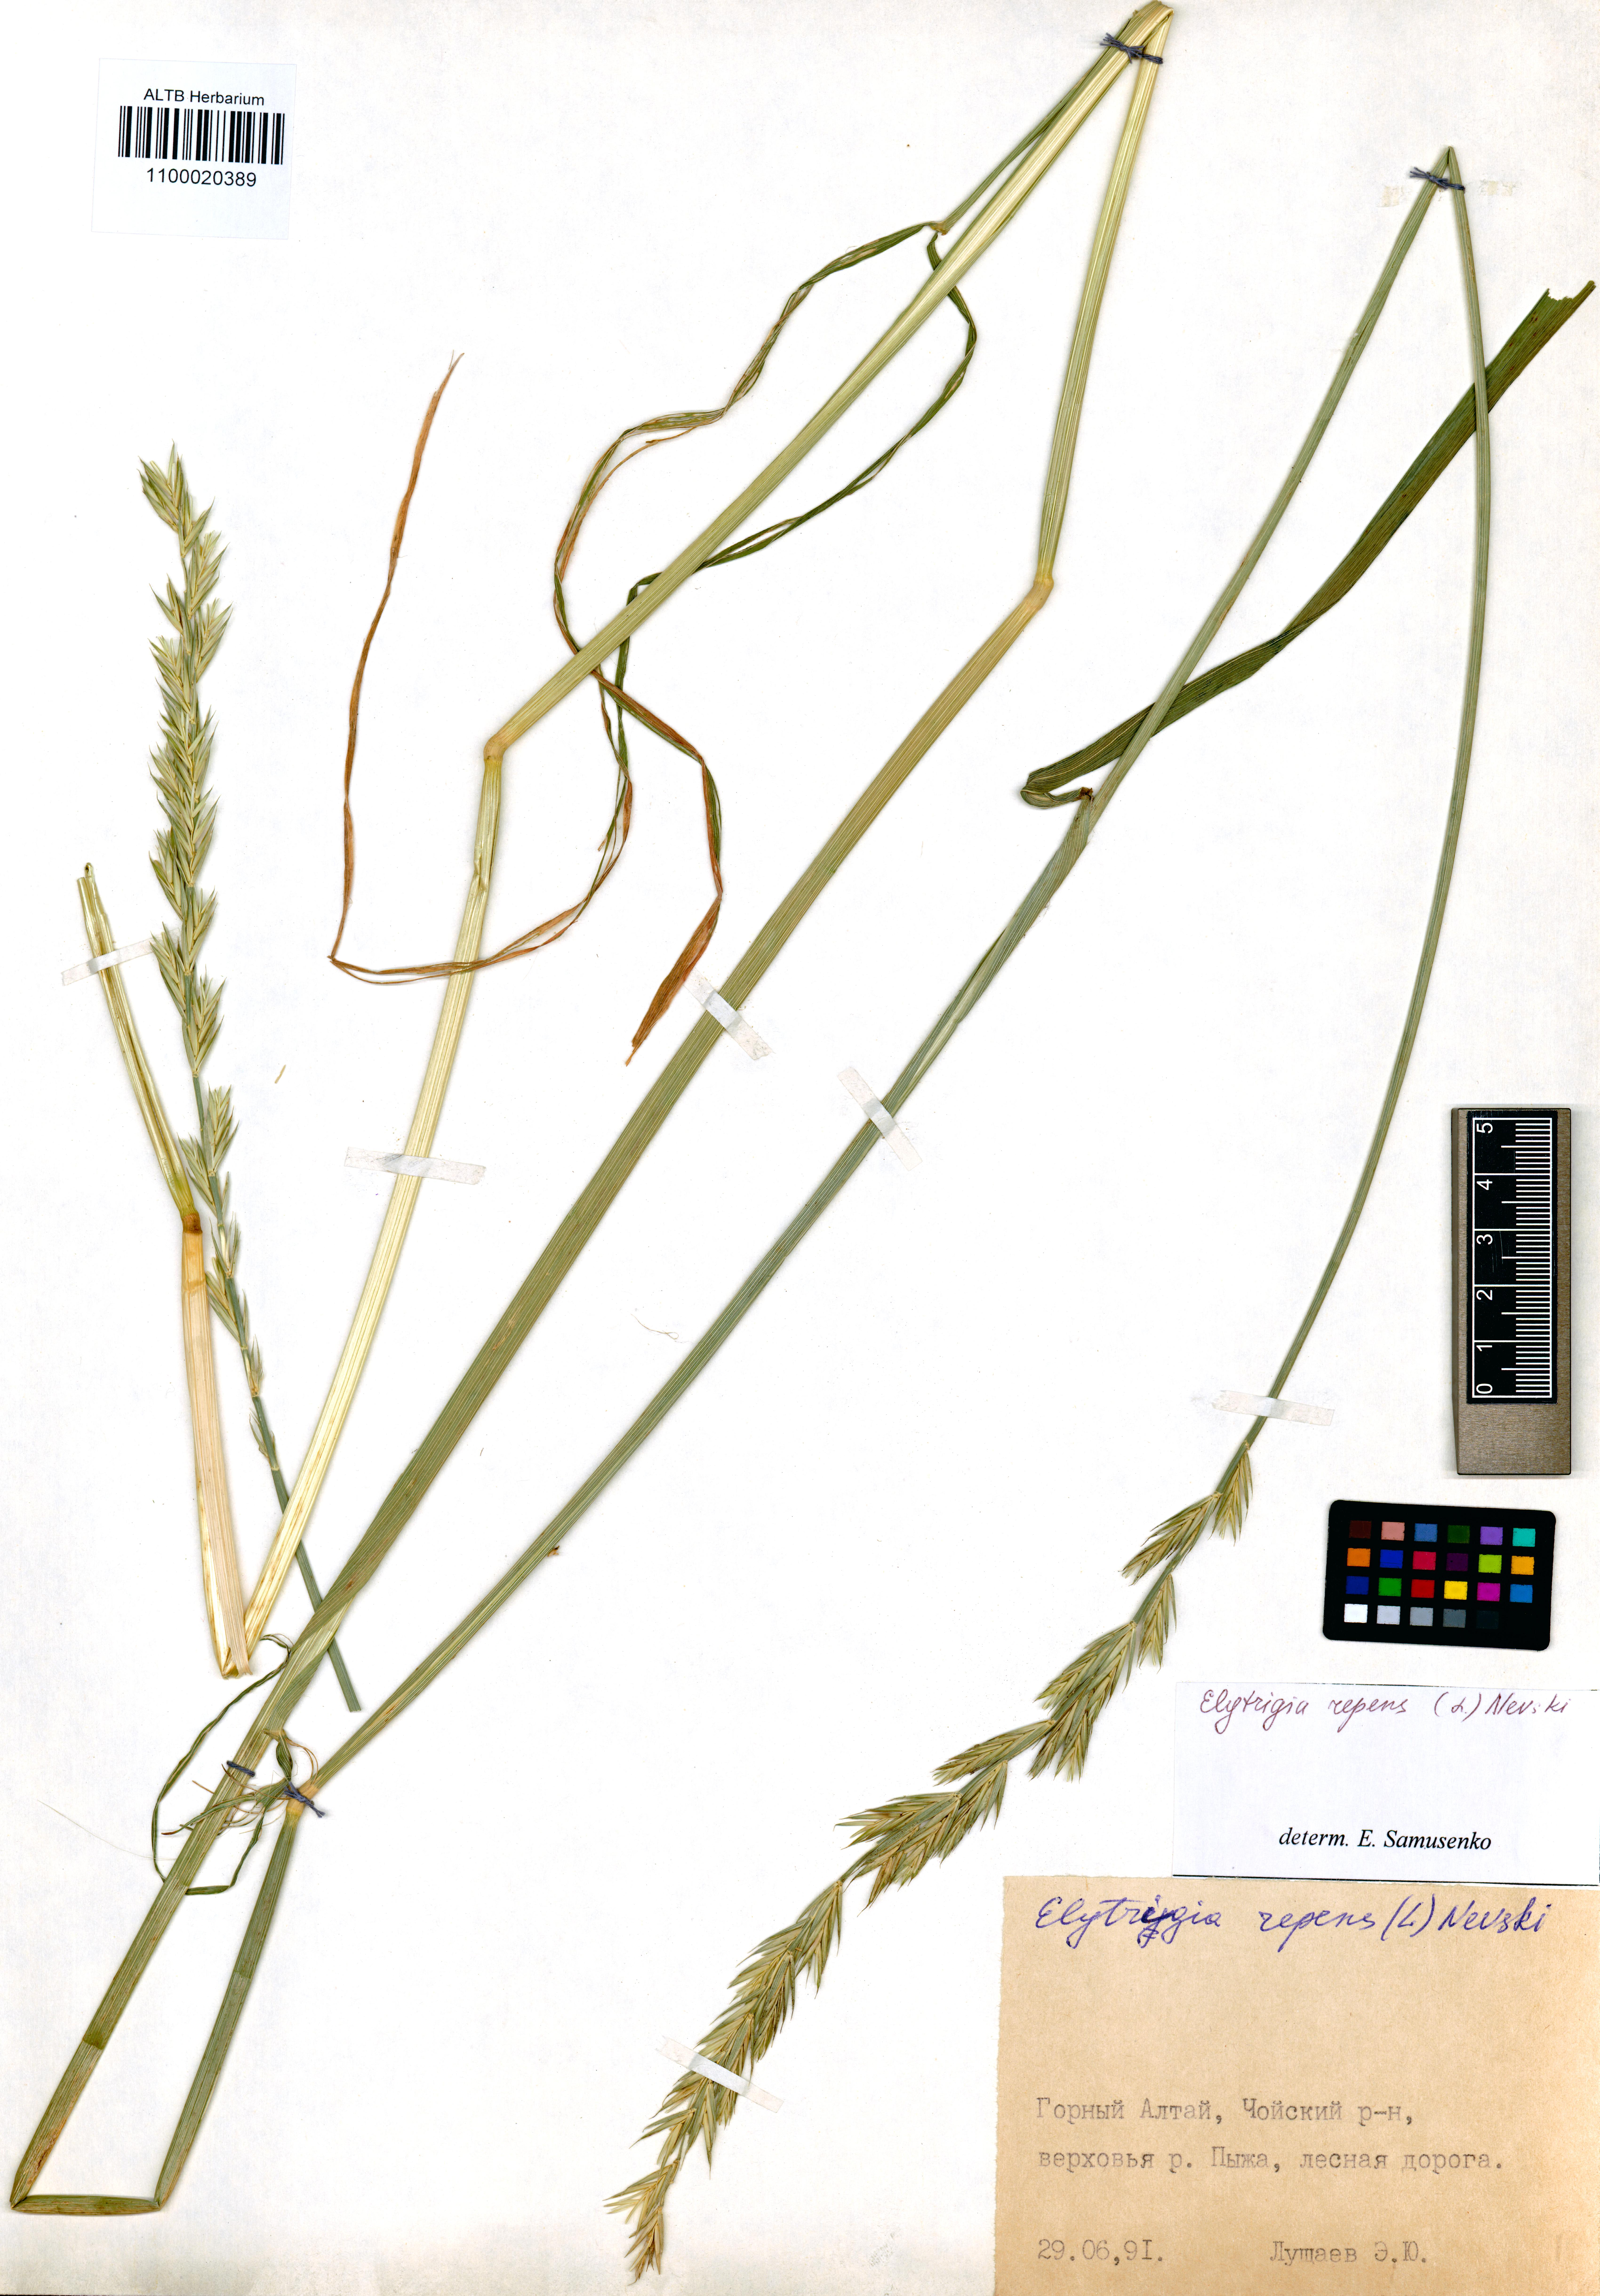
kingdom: Plantae
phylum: Tracheophyta
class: Liliopsida
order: Poales
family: Poaceae
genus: Elymus
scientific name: Elymus repens
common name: Quackgrass
